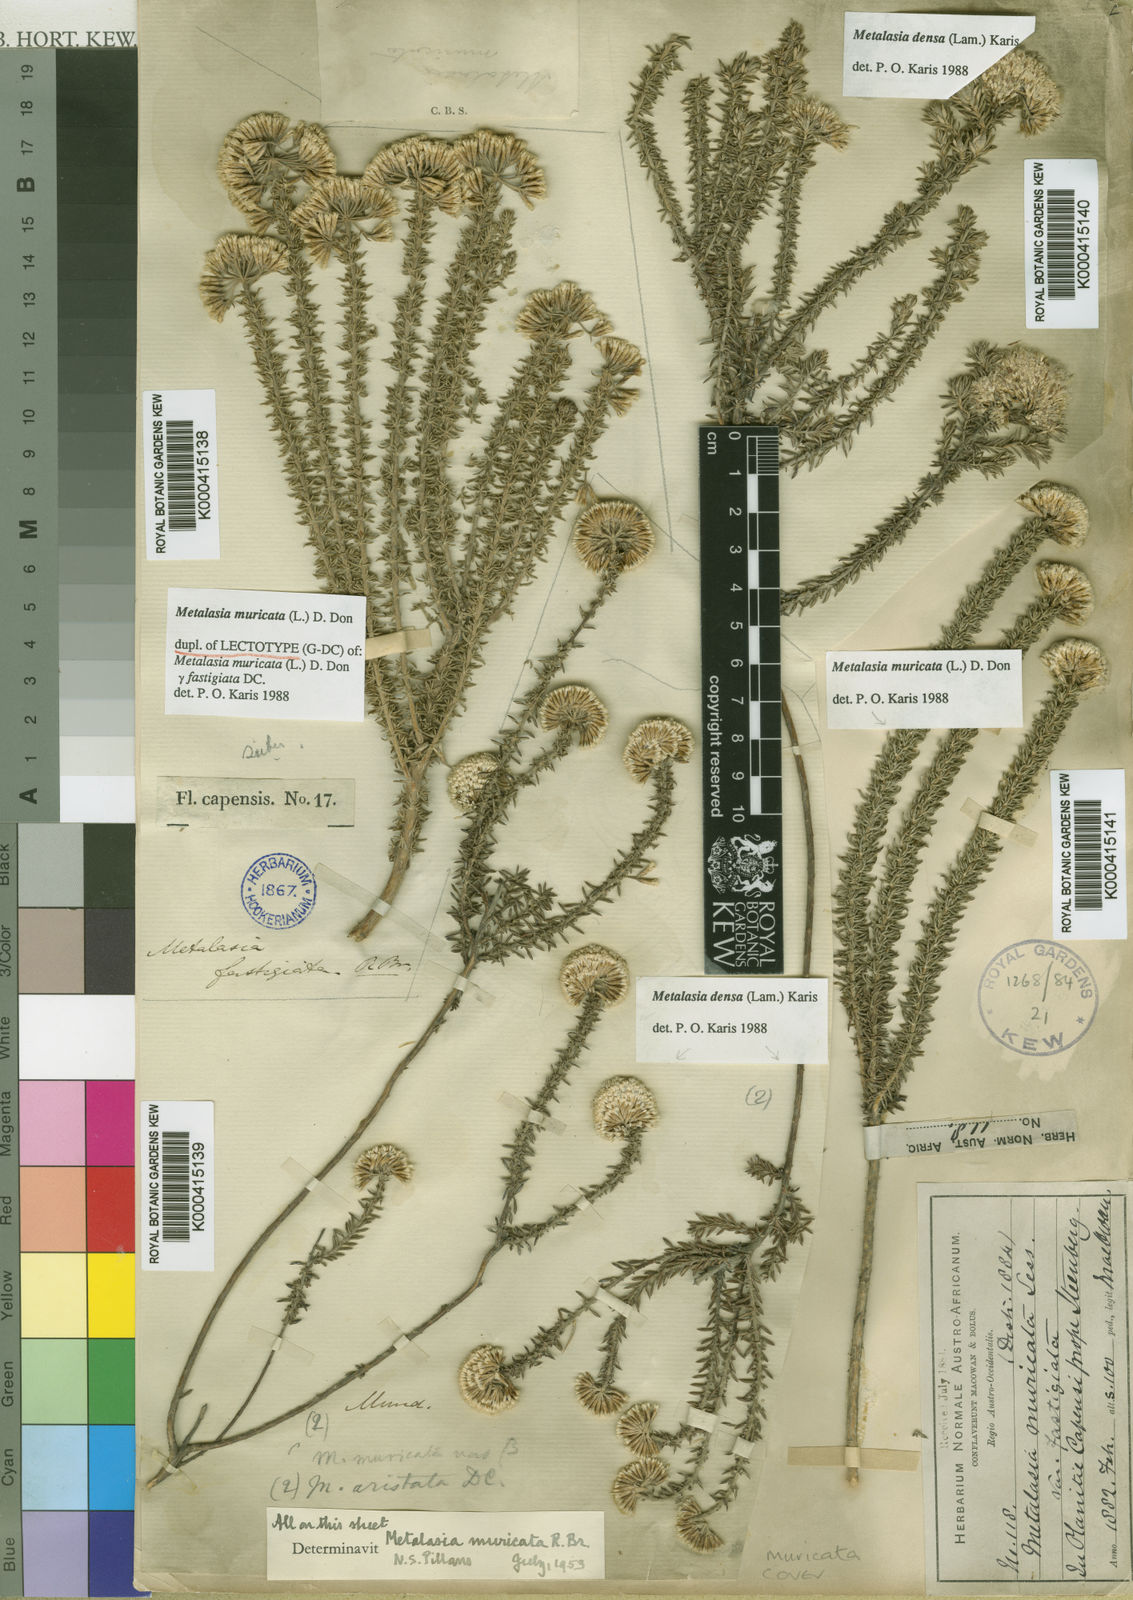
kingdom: Plantae
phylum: Tracheophyta
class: Magnoliopsida
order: Asterales
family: Asteraceae
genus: Metalasia
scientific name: Metalasia muricata
